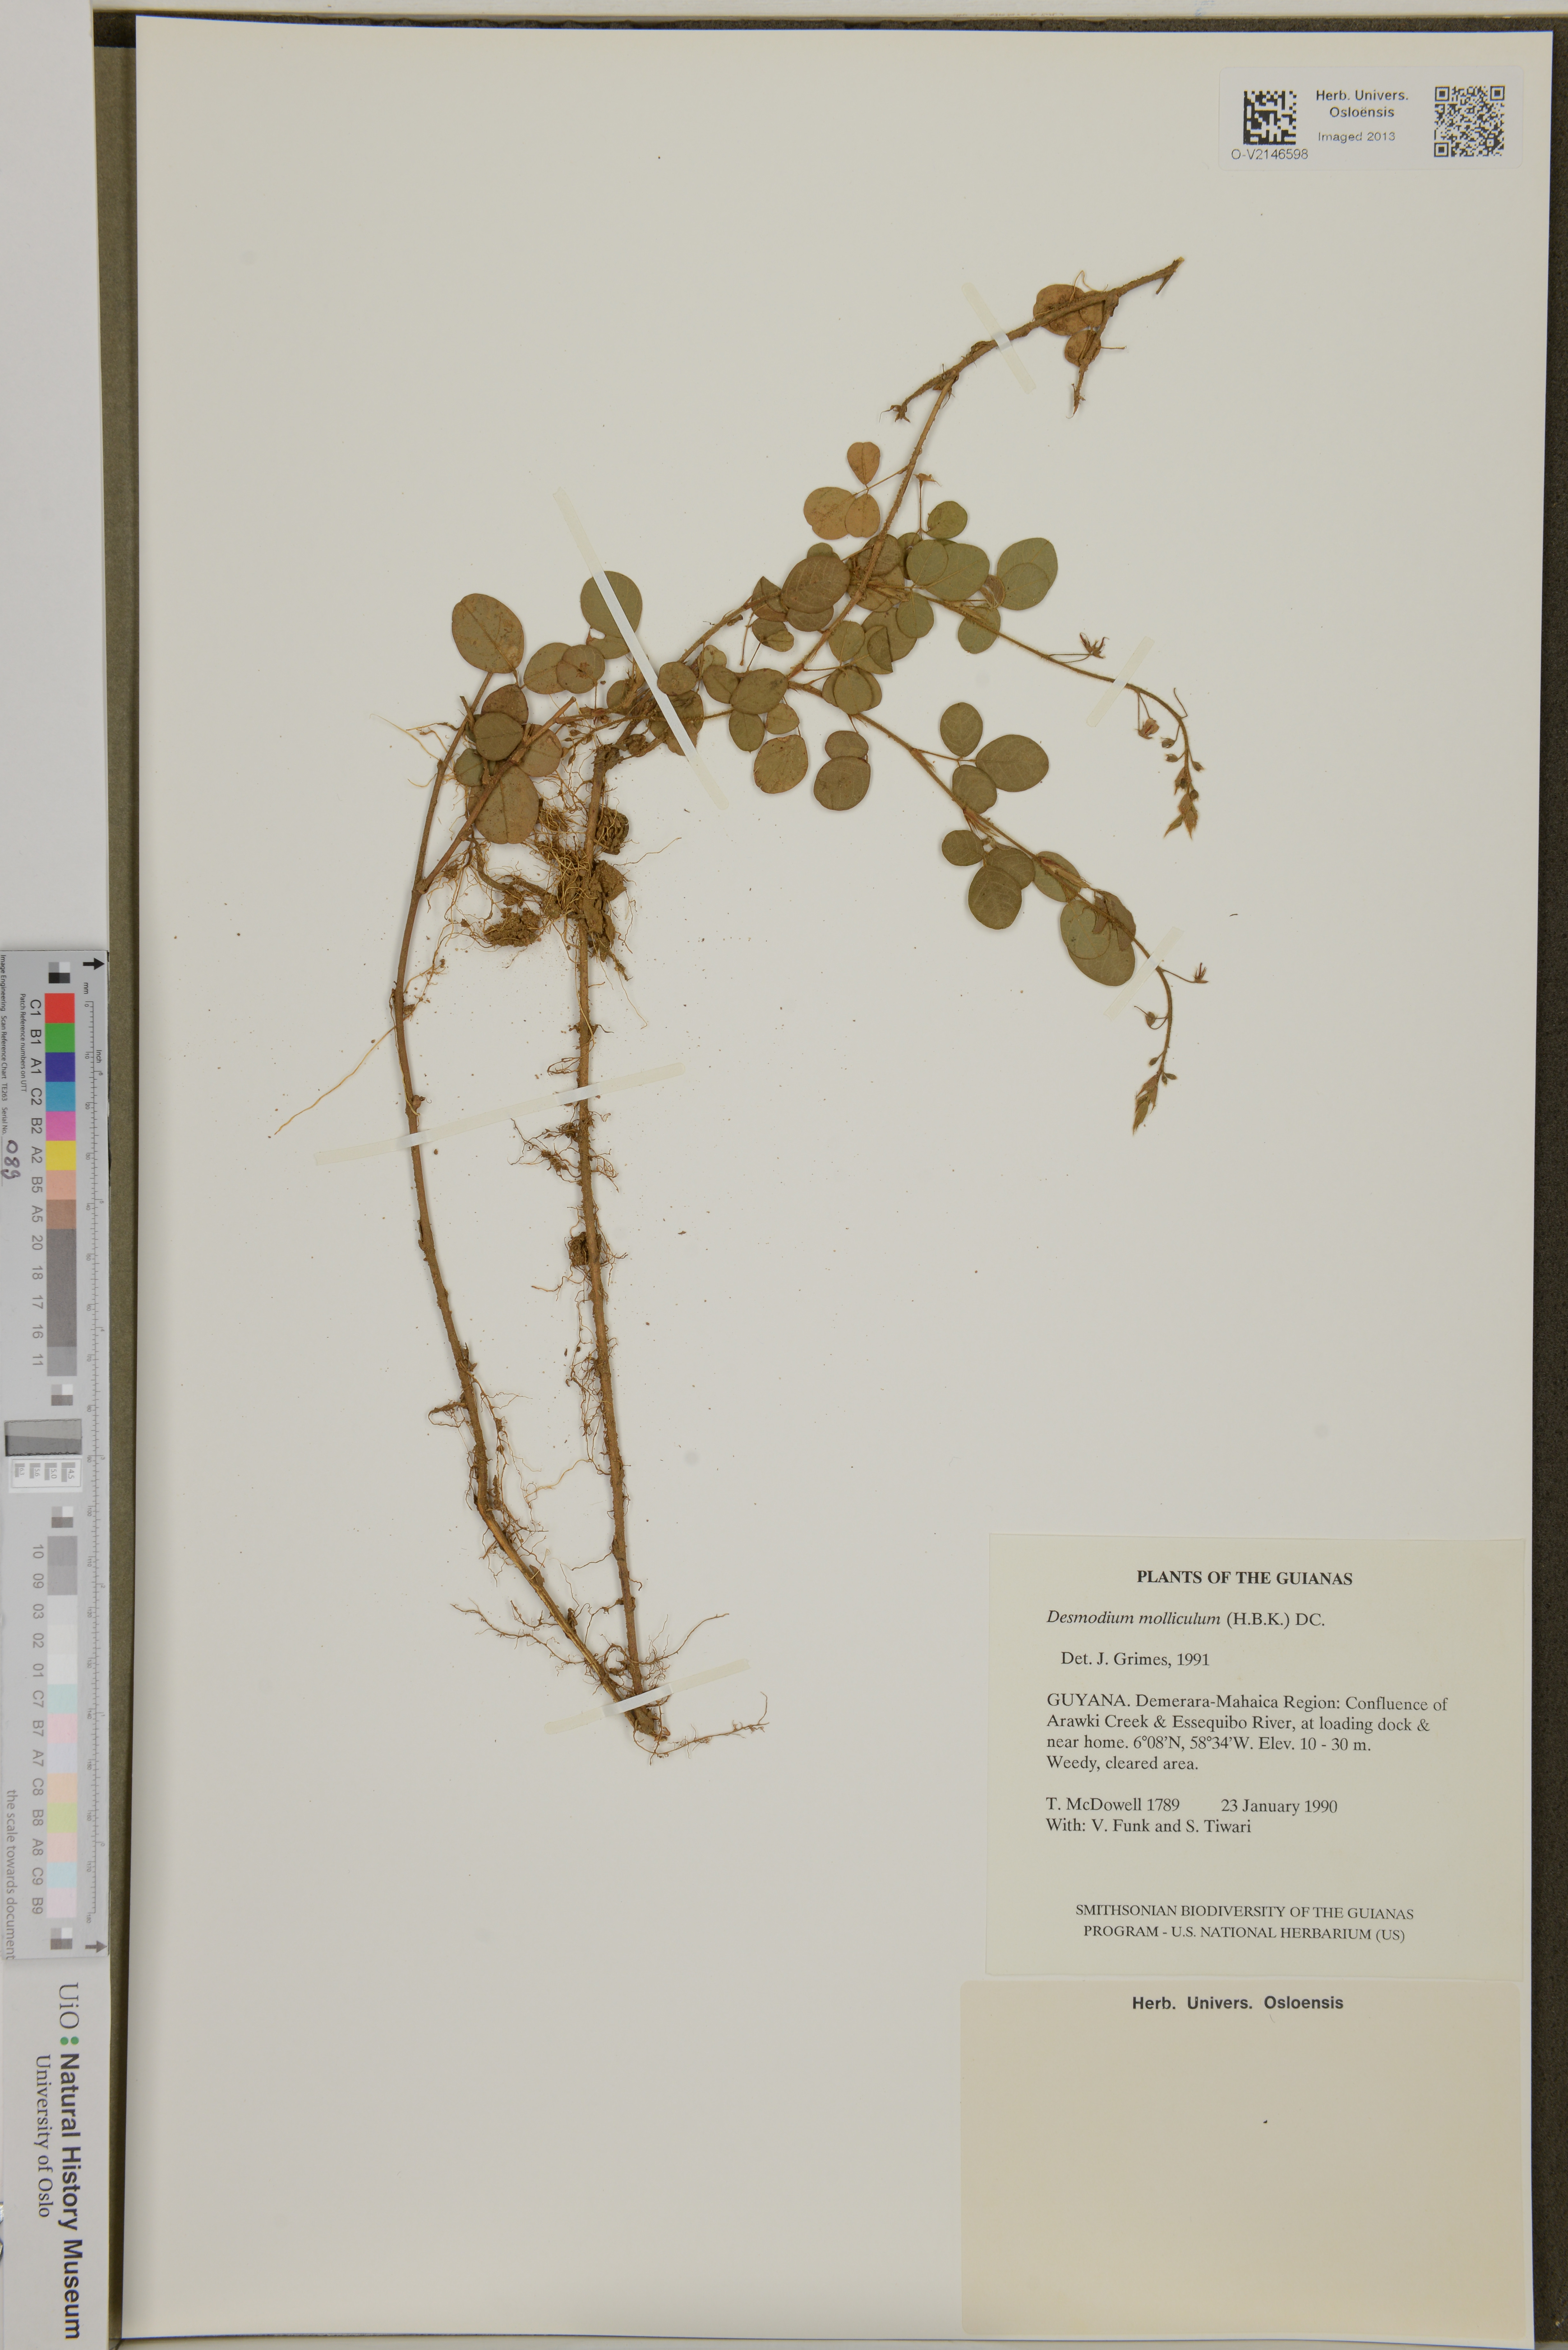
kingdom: Plantae
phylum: Tracheophyta
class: Magnoliopsida
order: Fabales
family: Fabaceae
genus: Desmodium
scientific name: Desmodium molliculum
